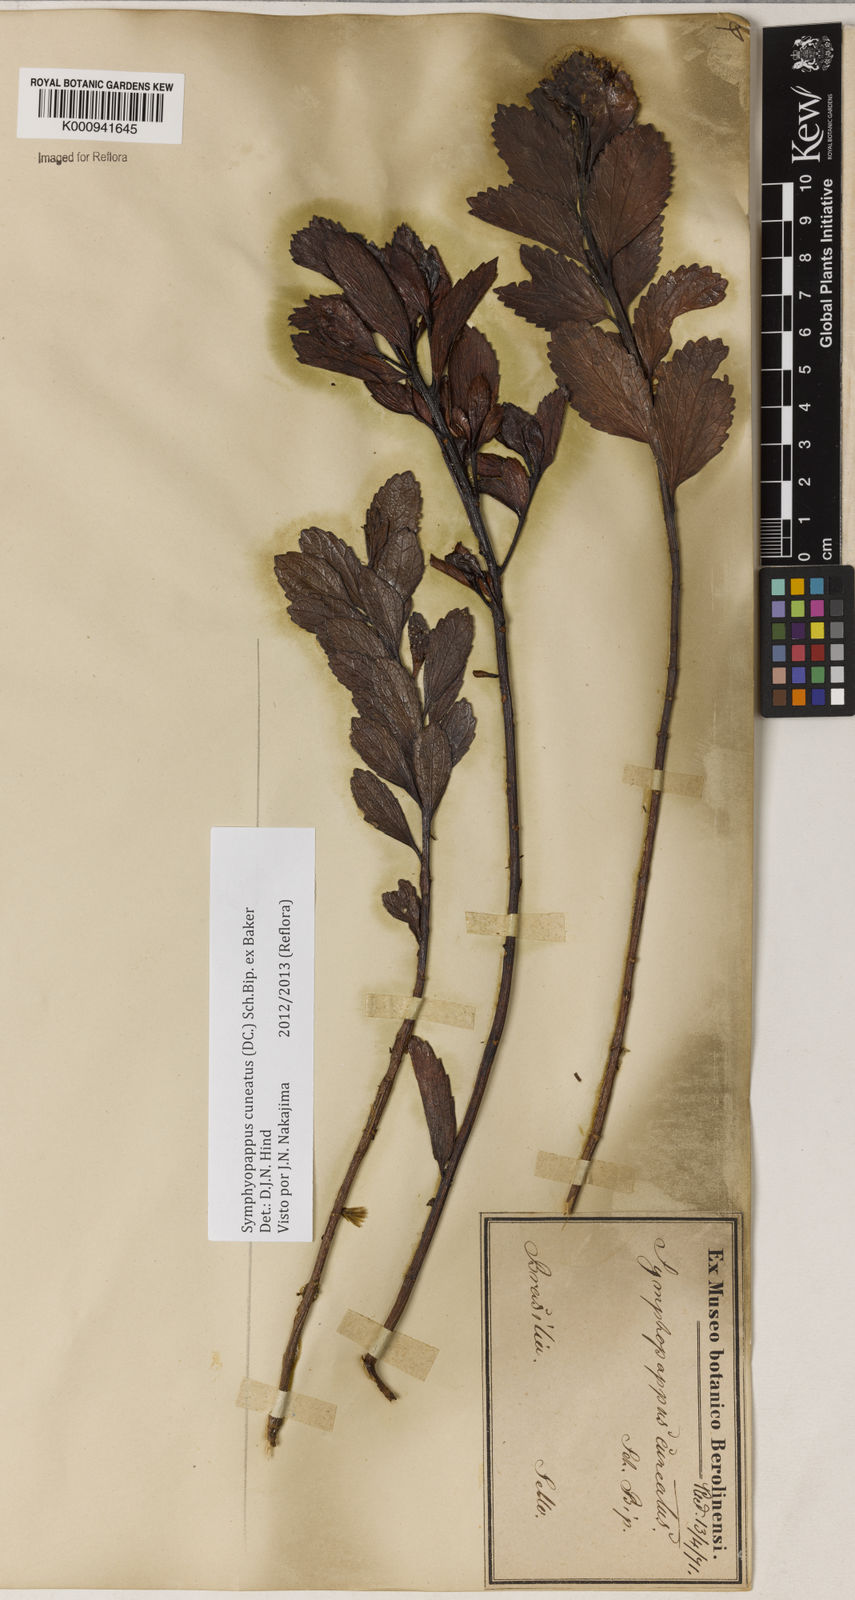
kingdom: Plantae
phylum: Tracheophyta
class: Magnoliopsida
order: Asterales
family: Asteraceae
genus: Symphyopappus
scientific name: Symphyopappus cuneatus
